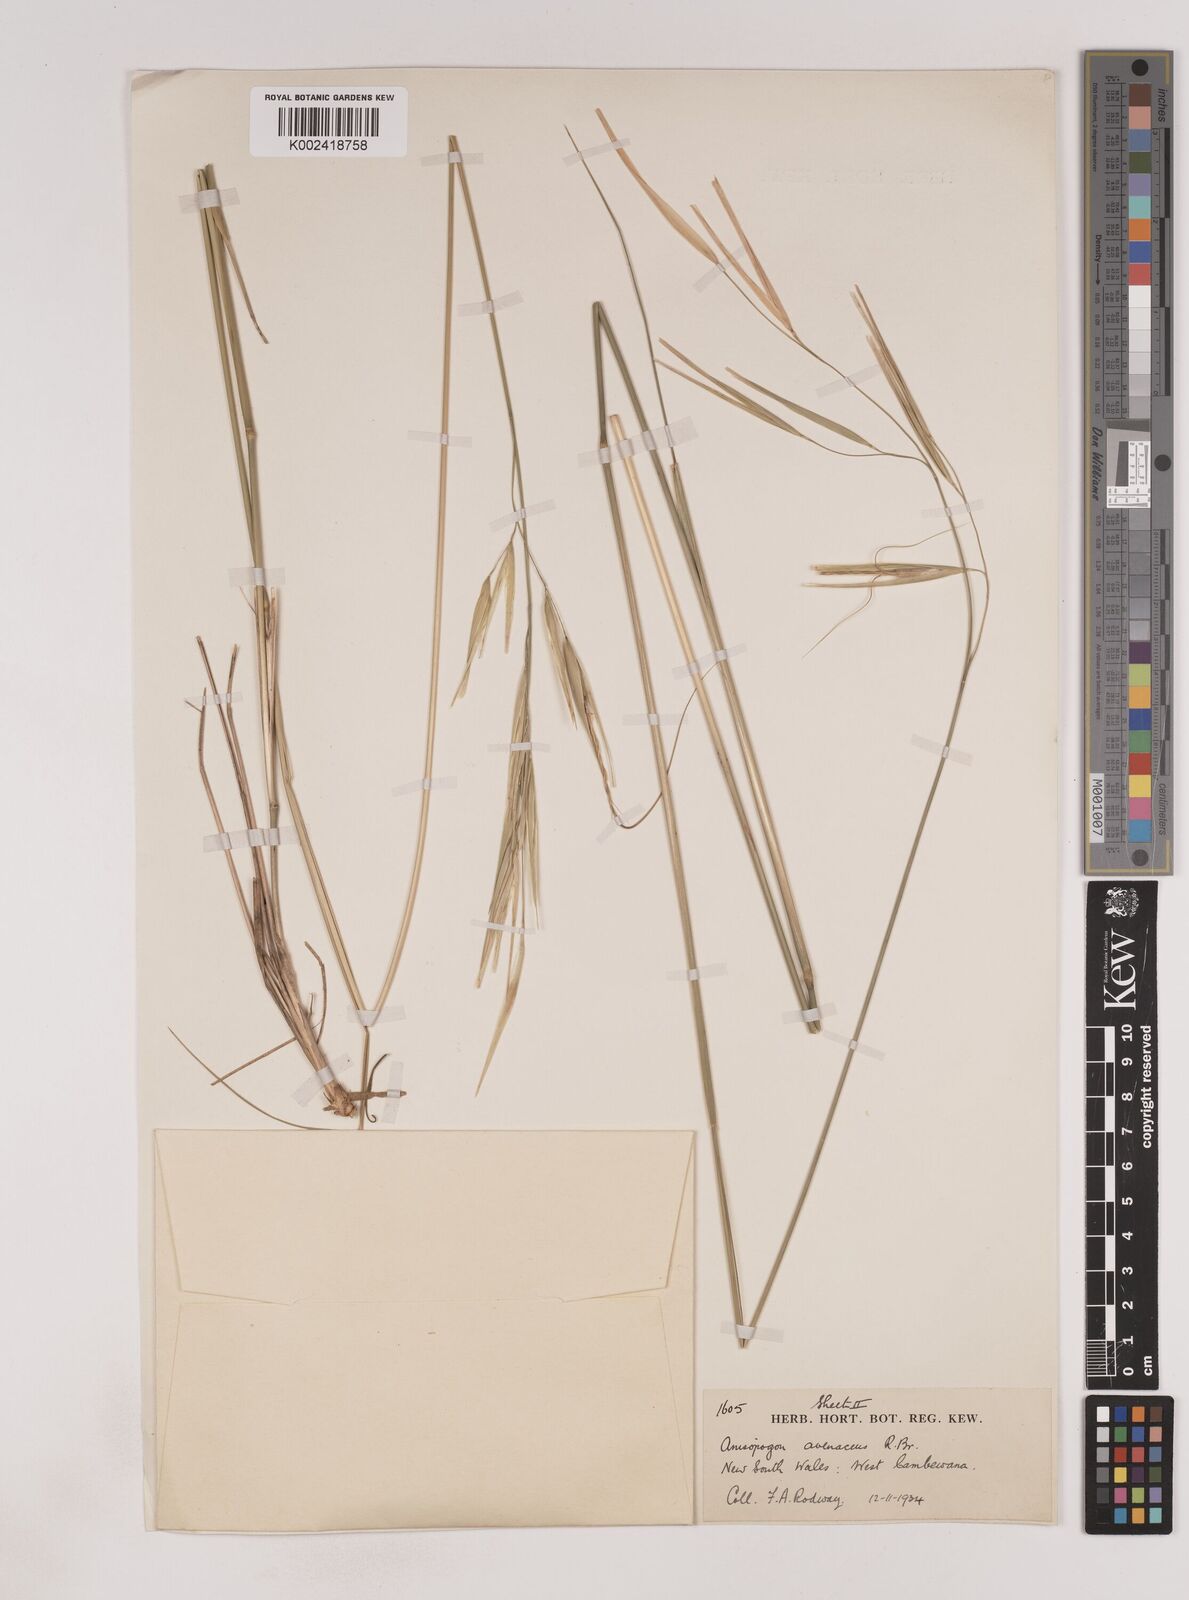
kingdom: Plantae
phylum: Tracheophyta
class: Liliopsida
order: Poales
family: Poaceae
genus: Anisopogon
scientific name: Anisopogon avenaceus
